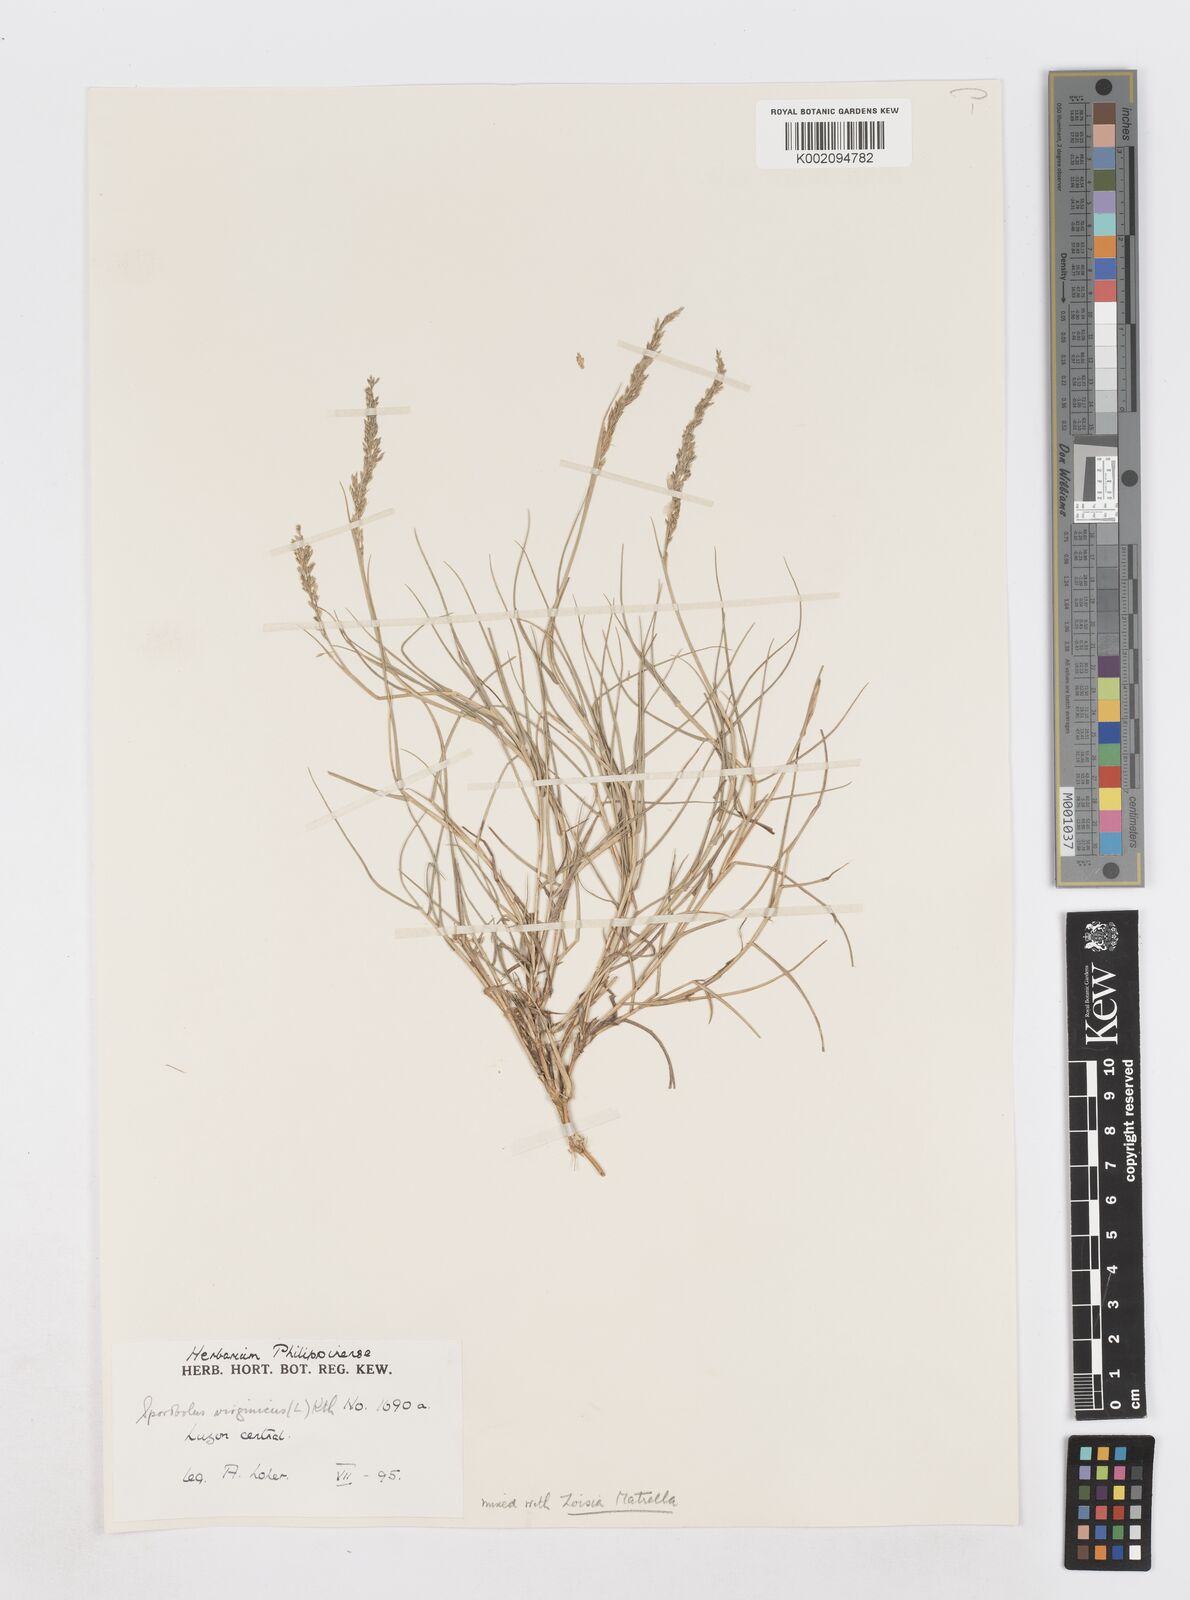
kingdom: Plantae
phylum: Tracheophyta
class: Liliopsida
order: Poales
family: Poaceae
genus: Sporobolus
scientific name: Sporobolus virginicus
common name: Beach dropseed
